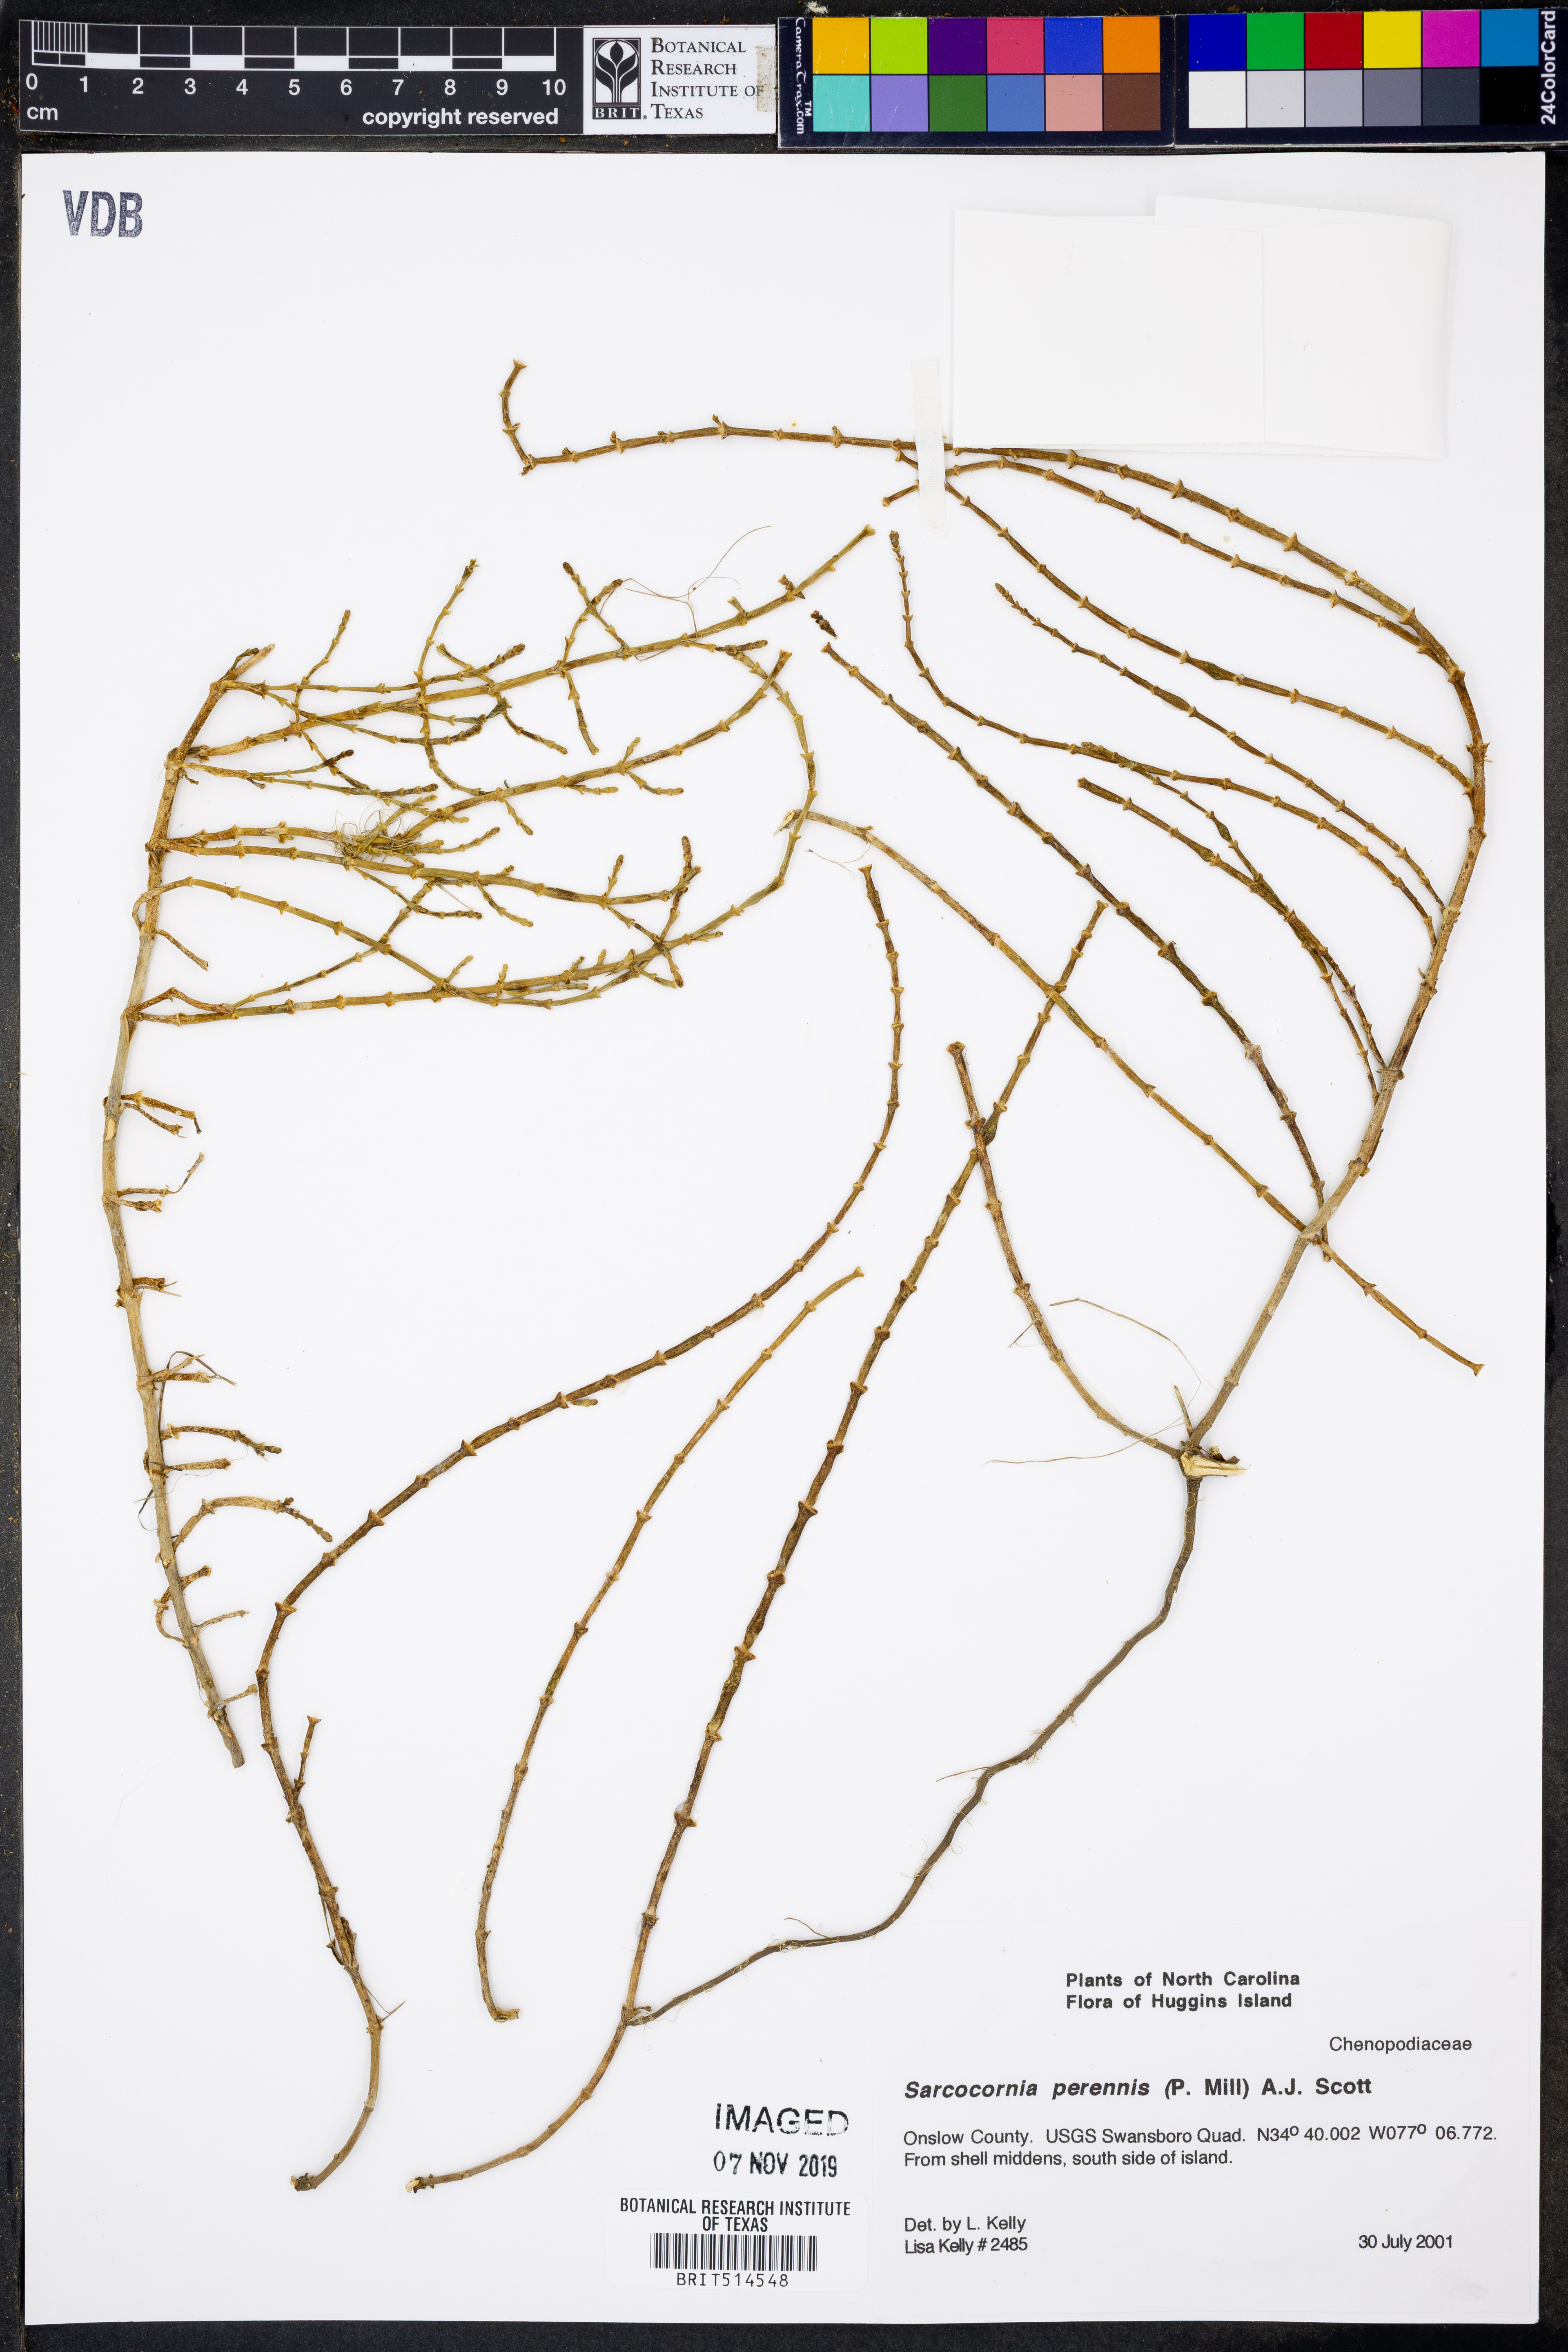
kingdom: Plantae
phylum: Tracheophyta
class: Magnoliopsida
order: Caryophyllales
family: Amaranthaceae
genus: Salicornia
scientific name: Salicornia perennis
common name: Chicken claws
